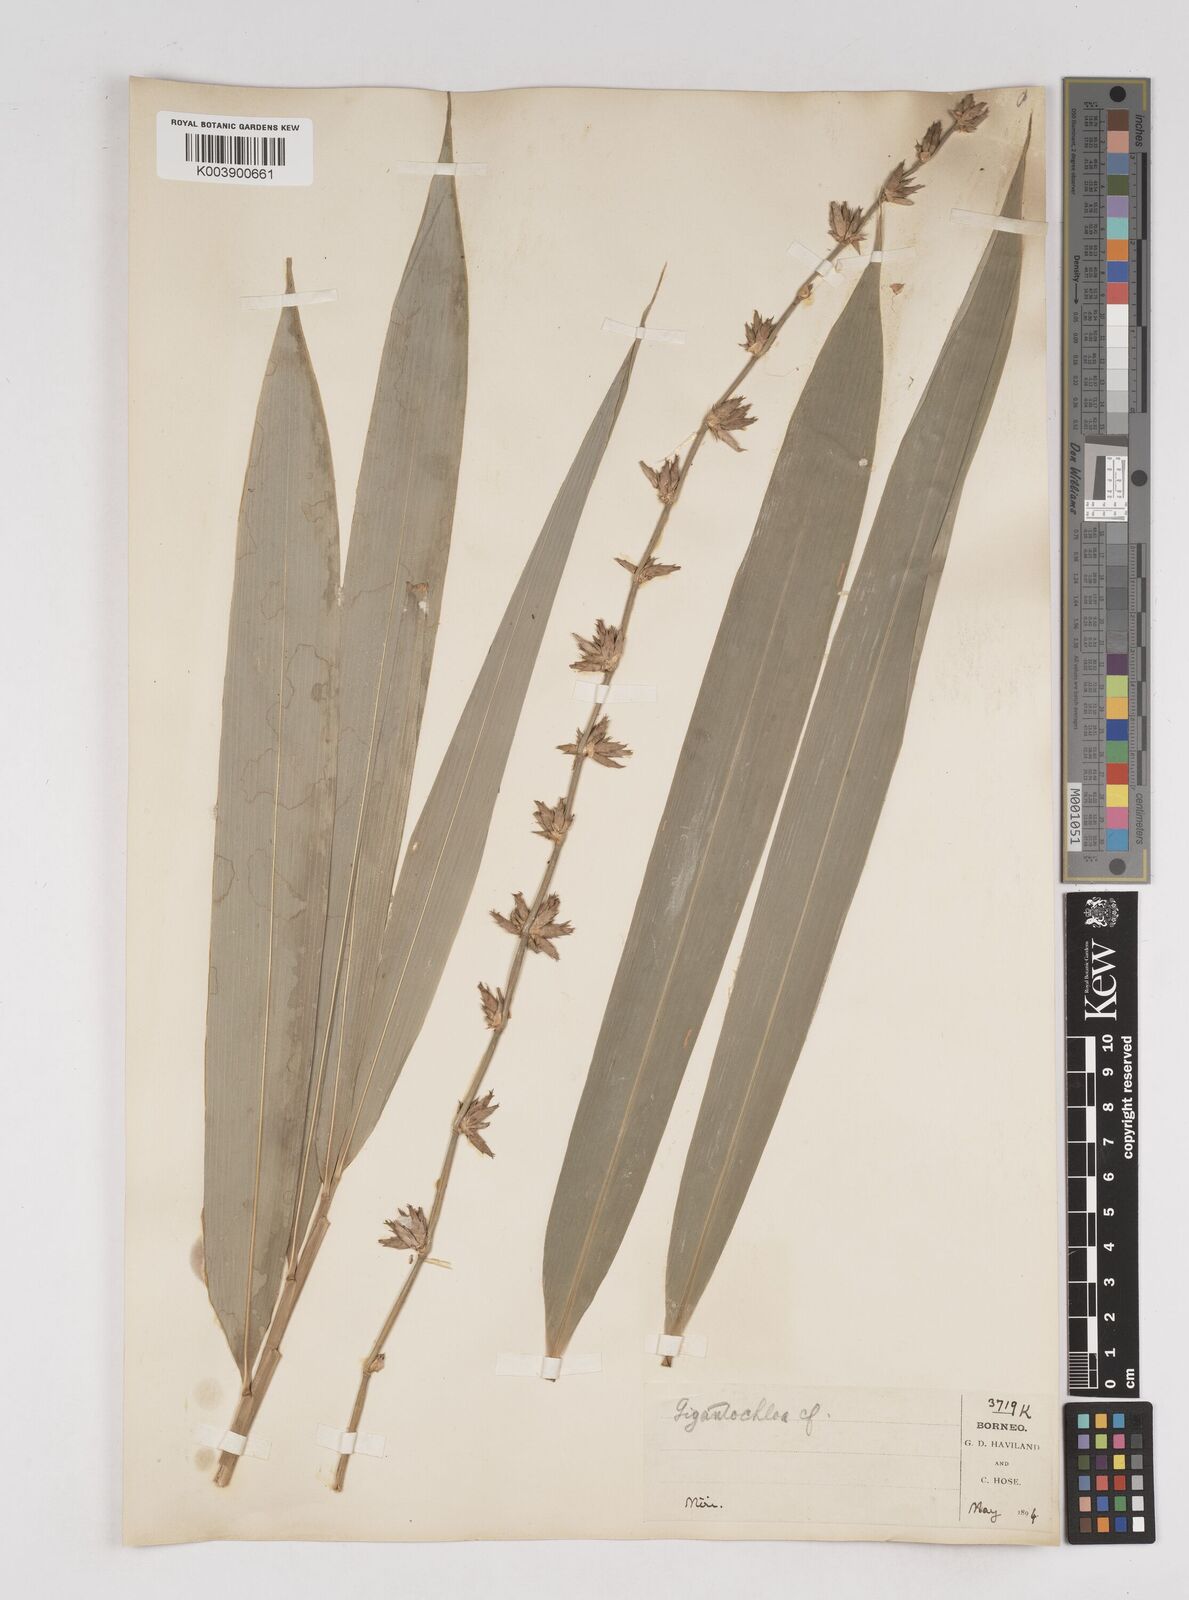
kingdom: Plantae
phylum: Tracheophyta
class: Liliopsida
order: Poales
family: Poaceae
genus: Gigantochloa
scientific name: Gigantochloa
